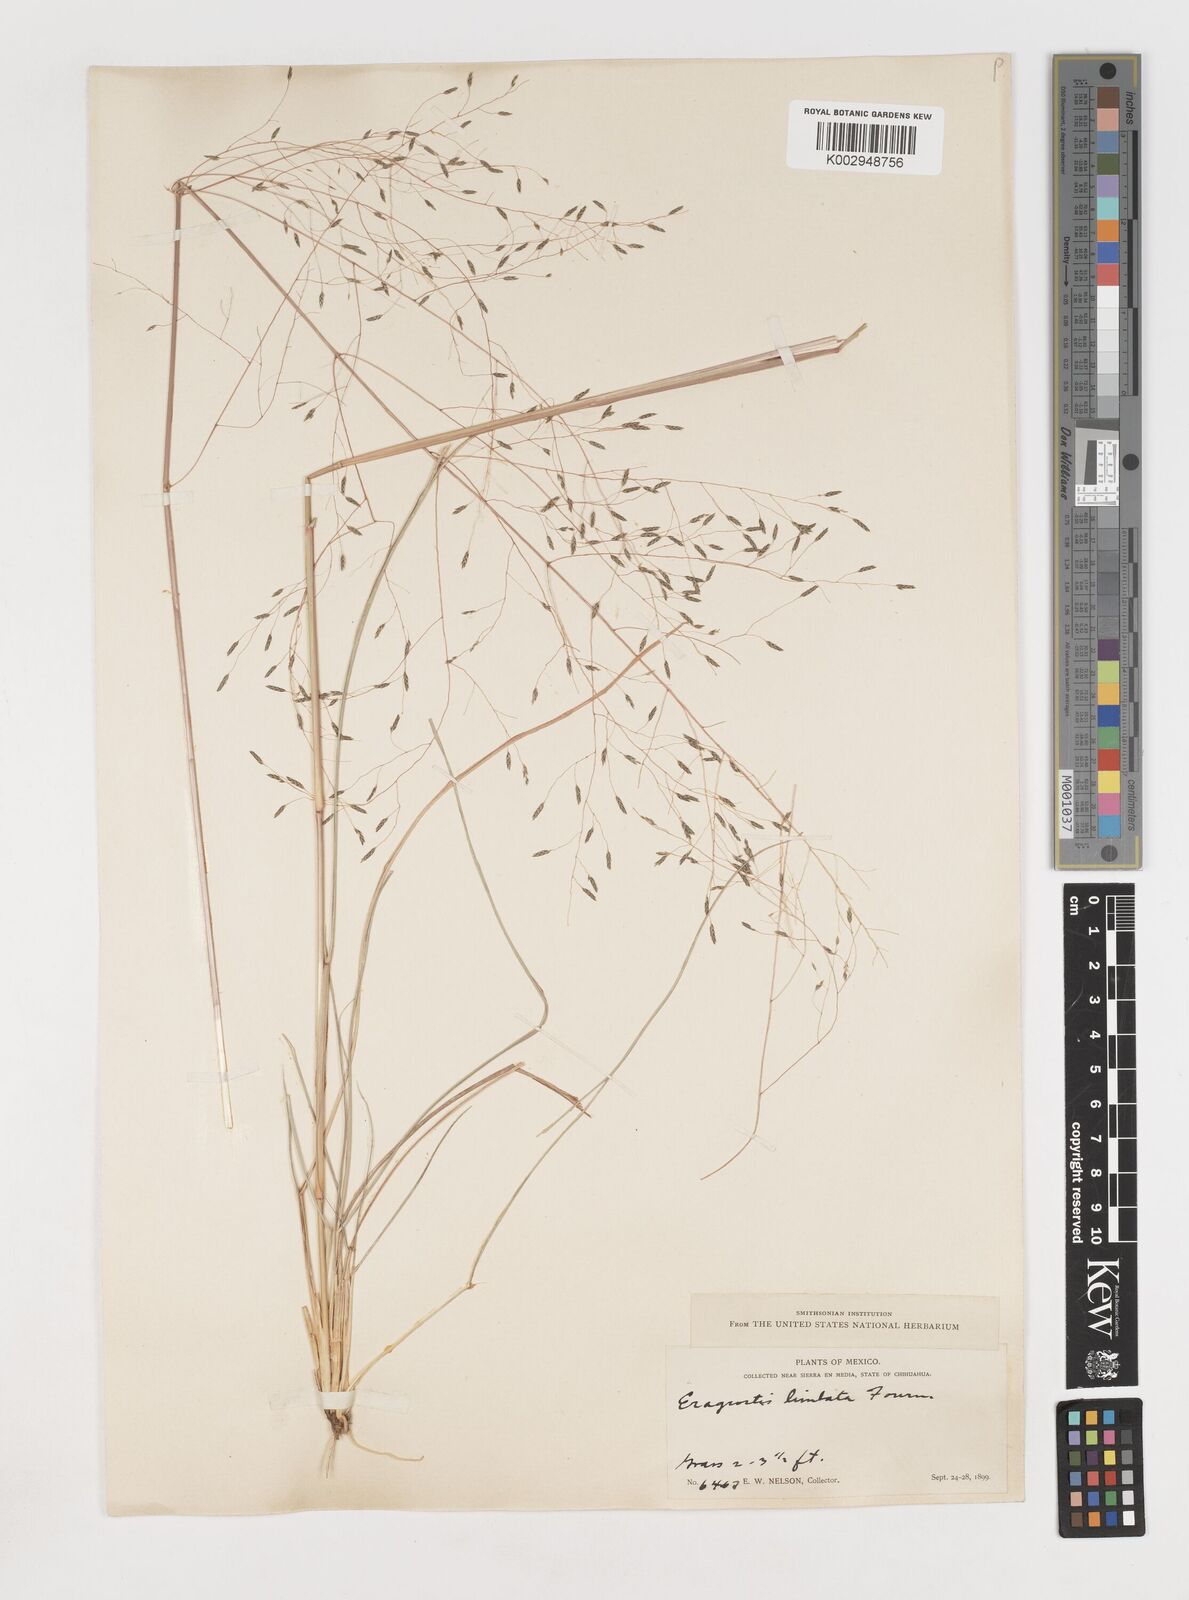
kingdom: Plantae
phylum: Tracheophyta
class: Liliopsida
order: Poales
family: Poaceae
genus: Eragrostis
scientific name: Eragrostis
